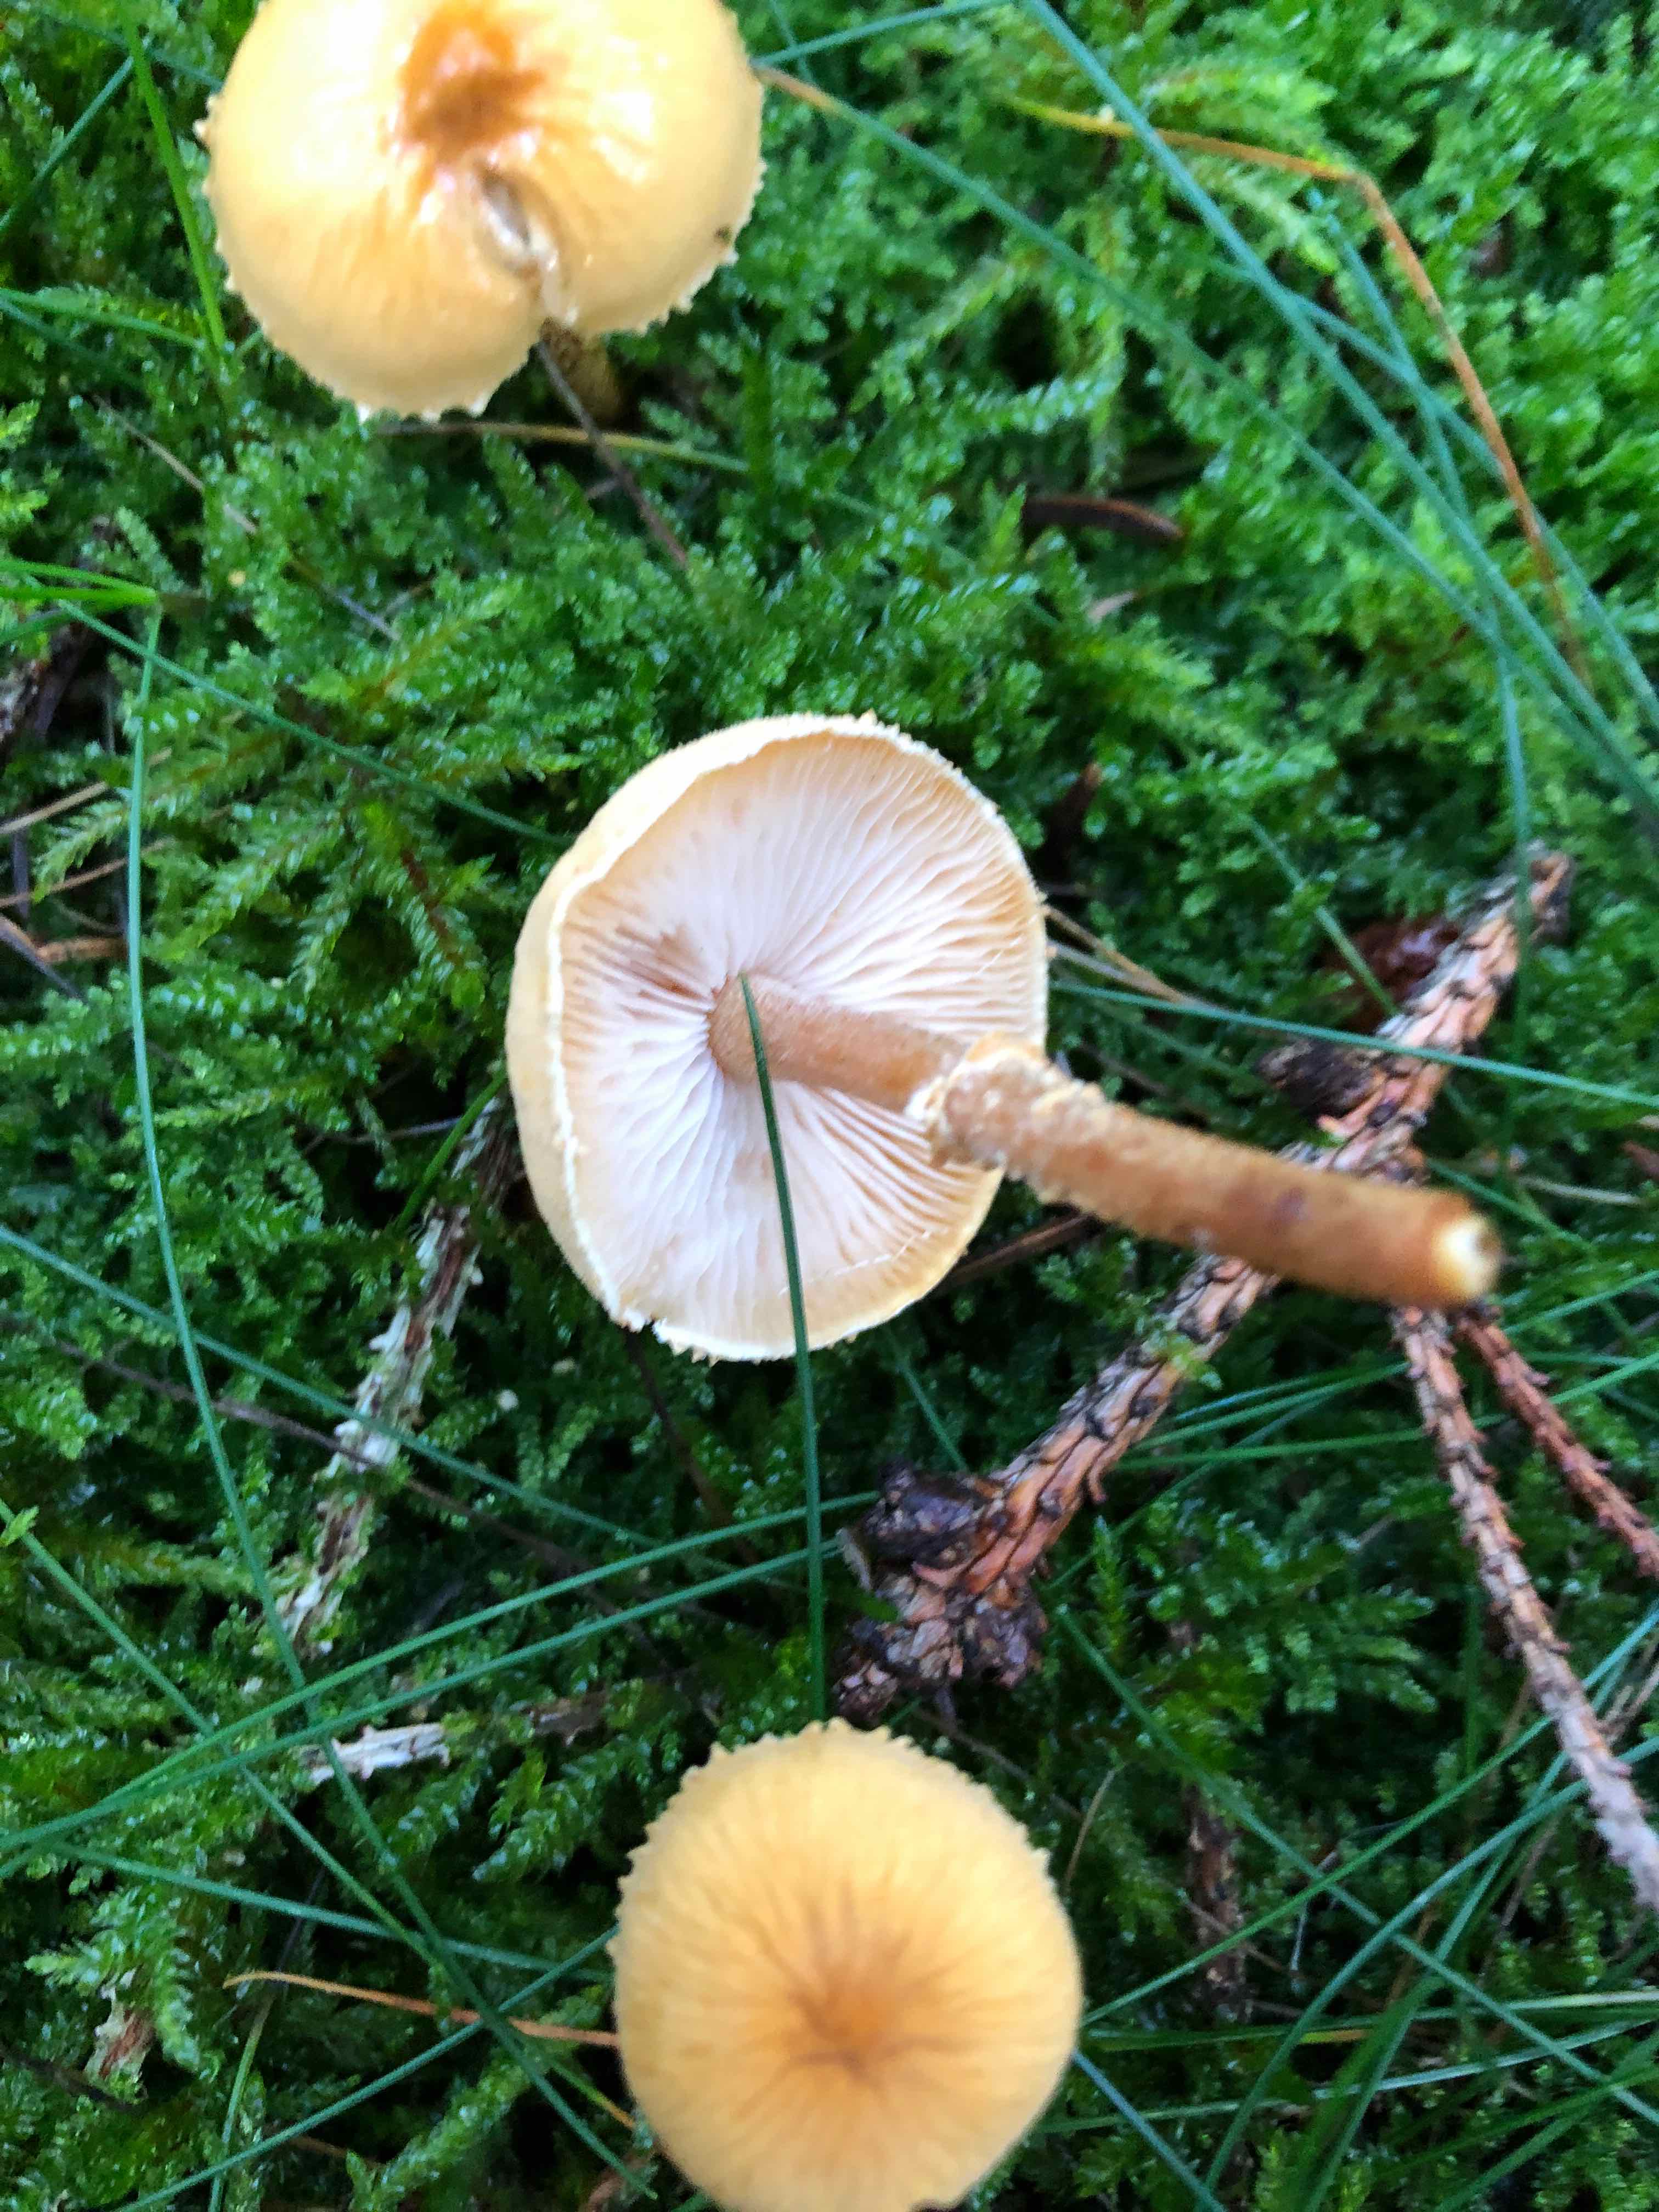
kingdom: Fungi
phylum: Basidiomycota
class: Agaricomycetes
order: Agaricales
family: Tricholomataceae
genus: Cystoderma
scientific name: Cystoderma amianthinum
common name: okkergul grynhat
